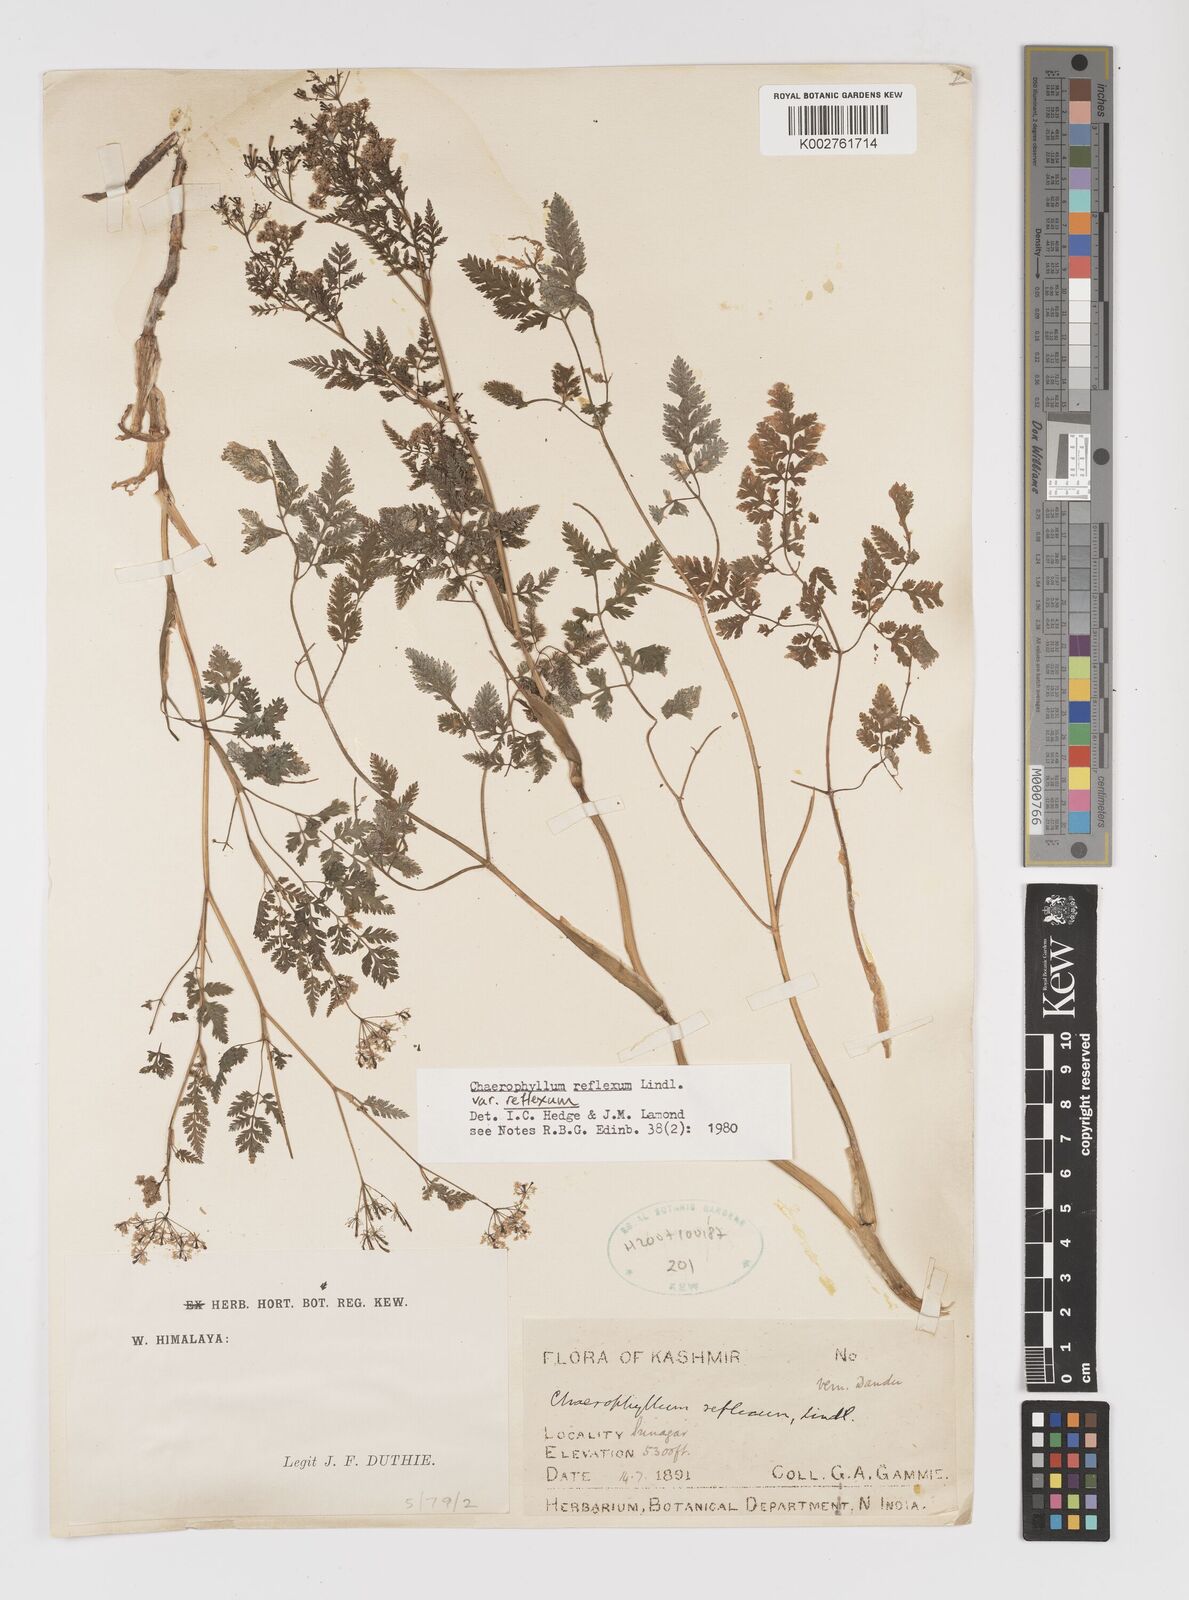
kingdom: Plantae
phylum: Tracheophyta
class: Magnoliopsida
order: Apiales
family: Apiaceae
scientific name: Apiaceae
